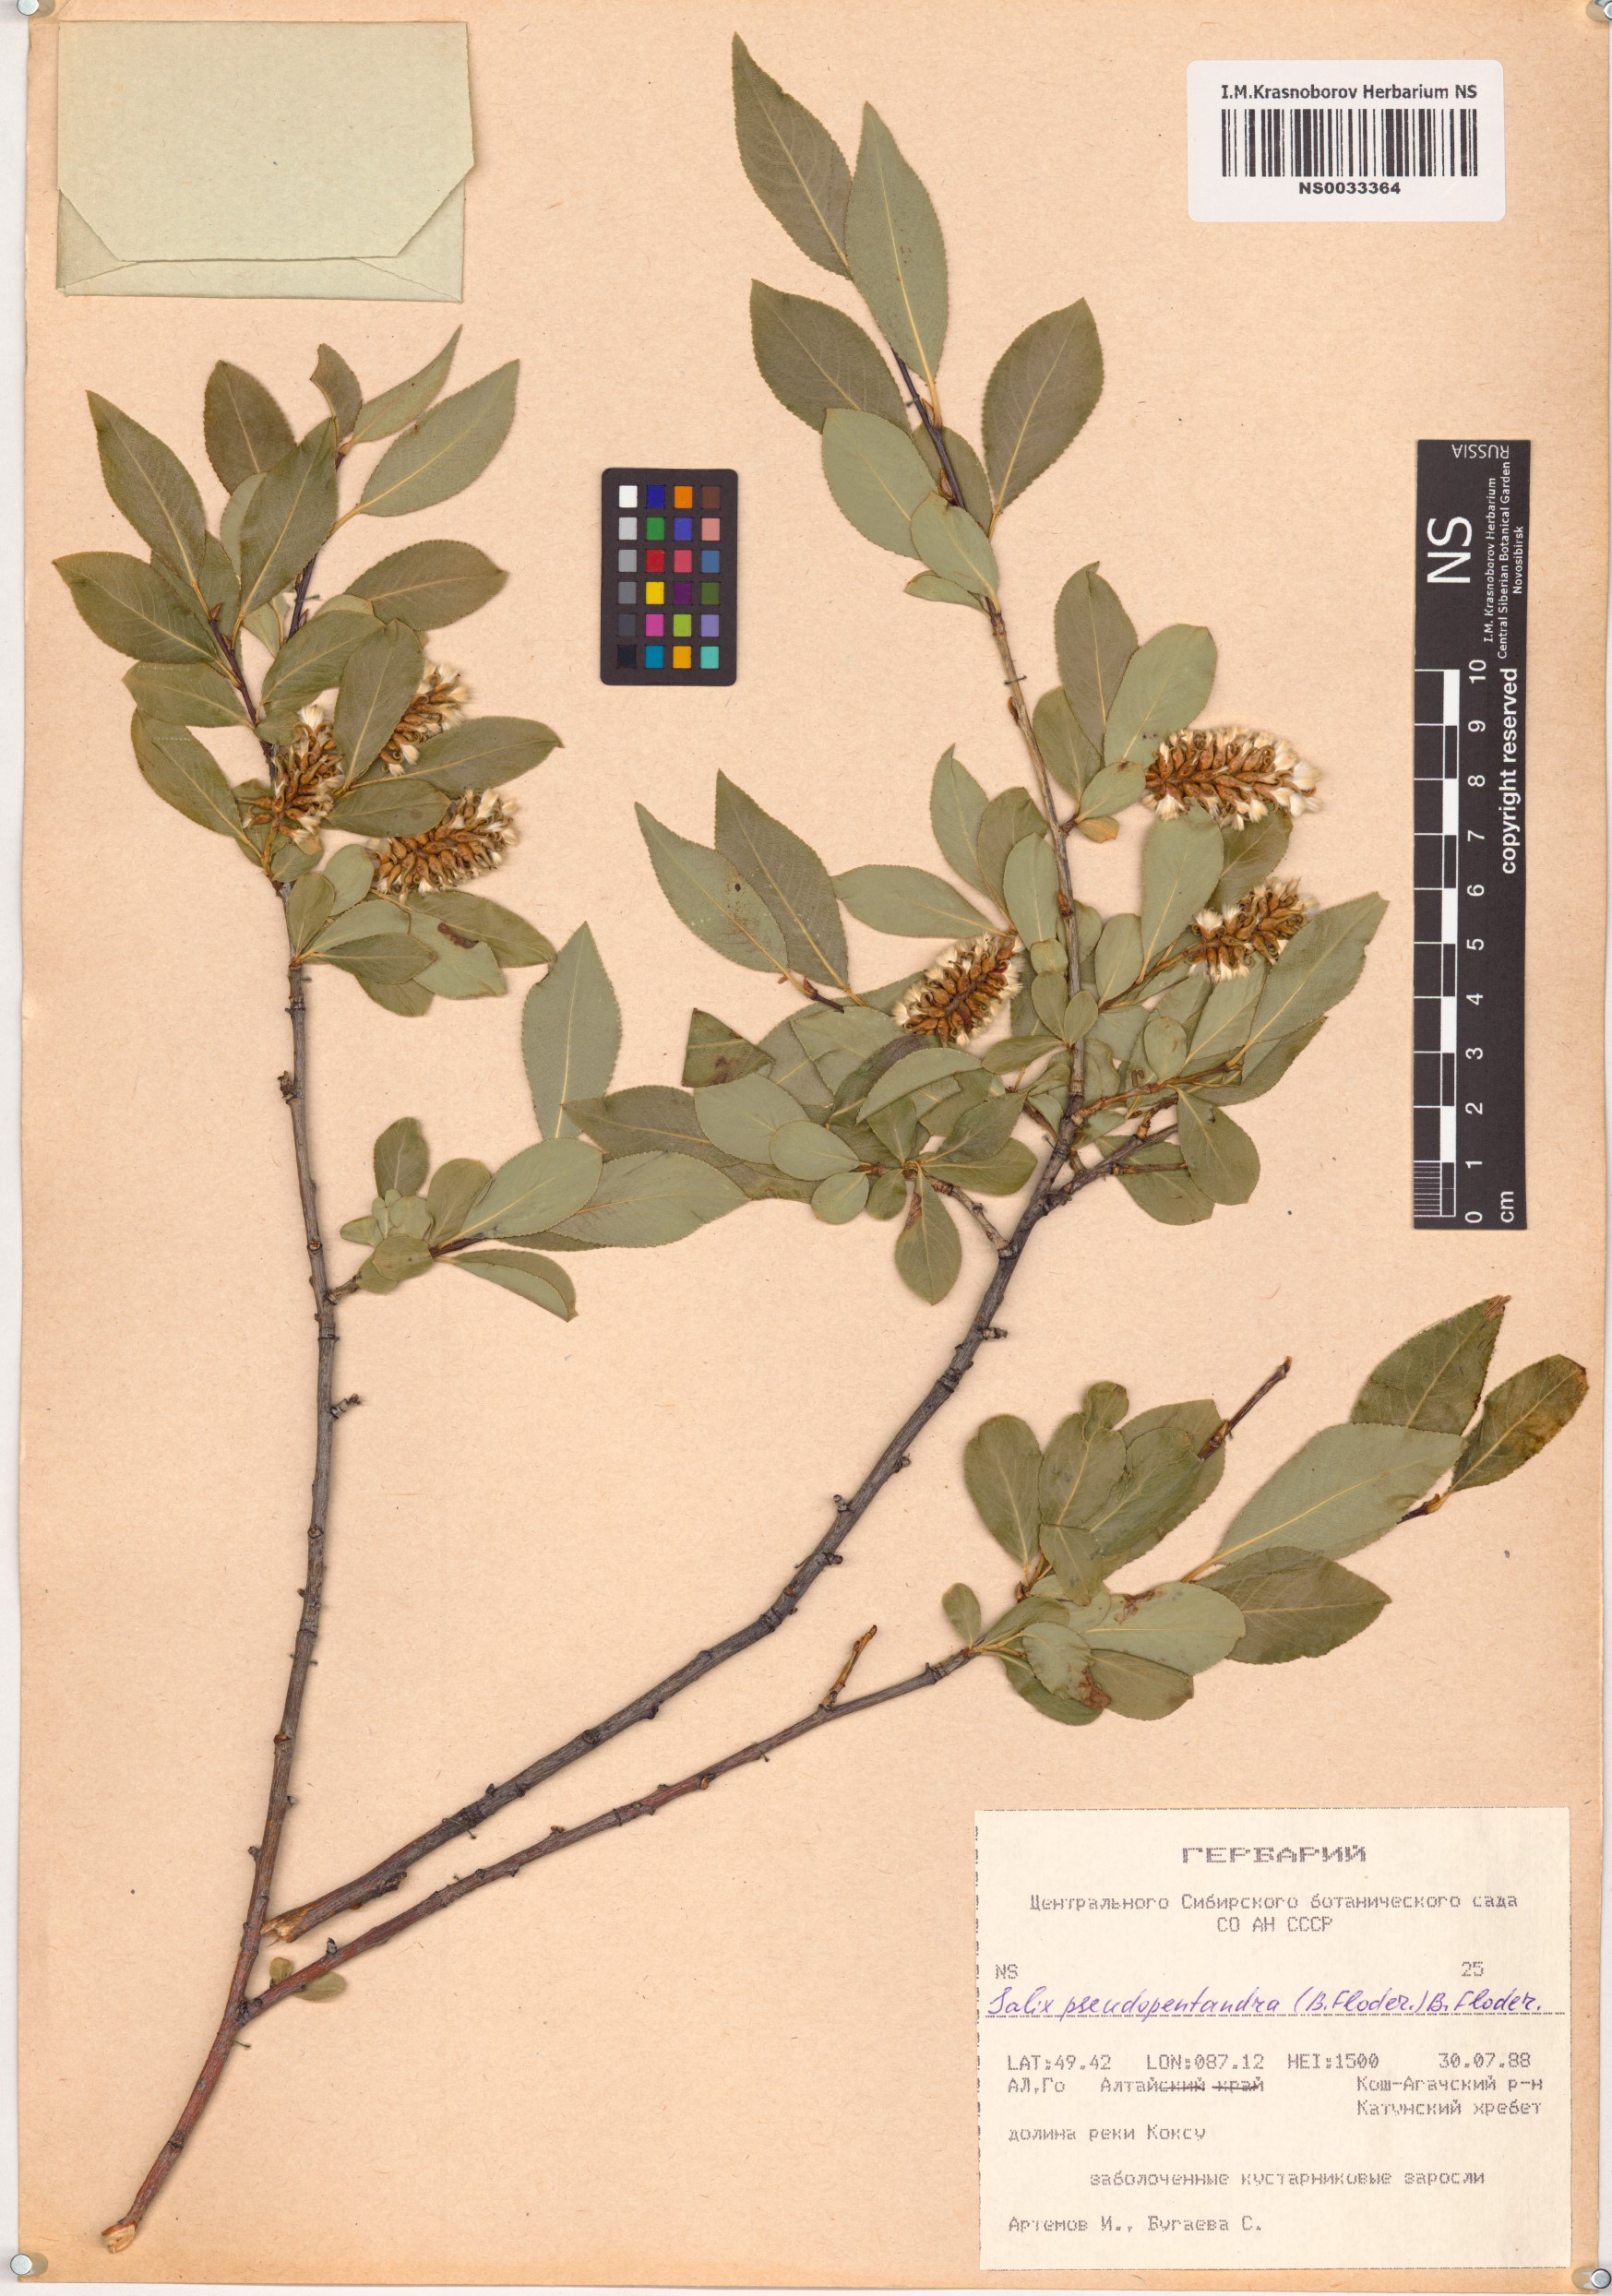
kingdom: Plantae
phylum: Tracheophyta
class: Magnoliopsida
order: Malpighiales
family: Salicaceae
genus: Salix
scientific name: Salix pseudopentandra
